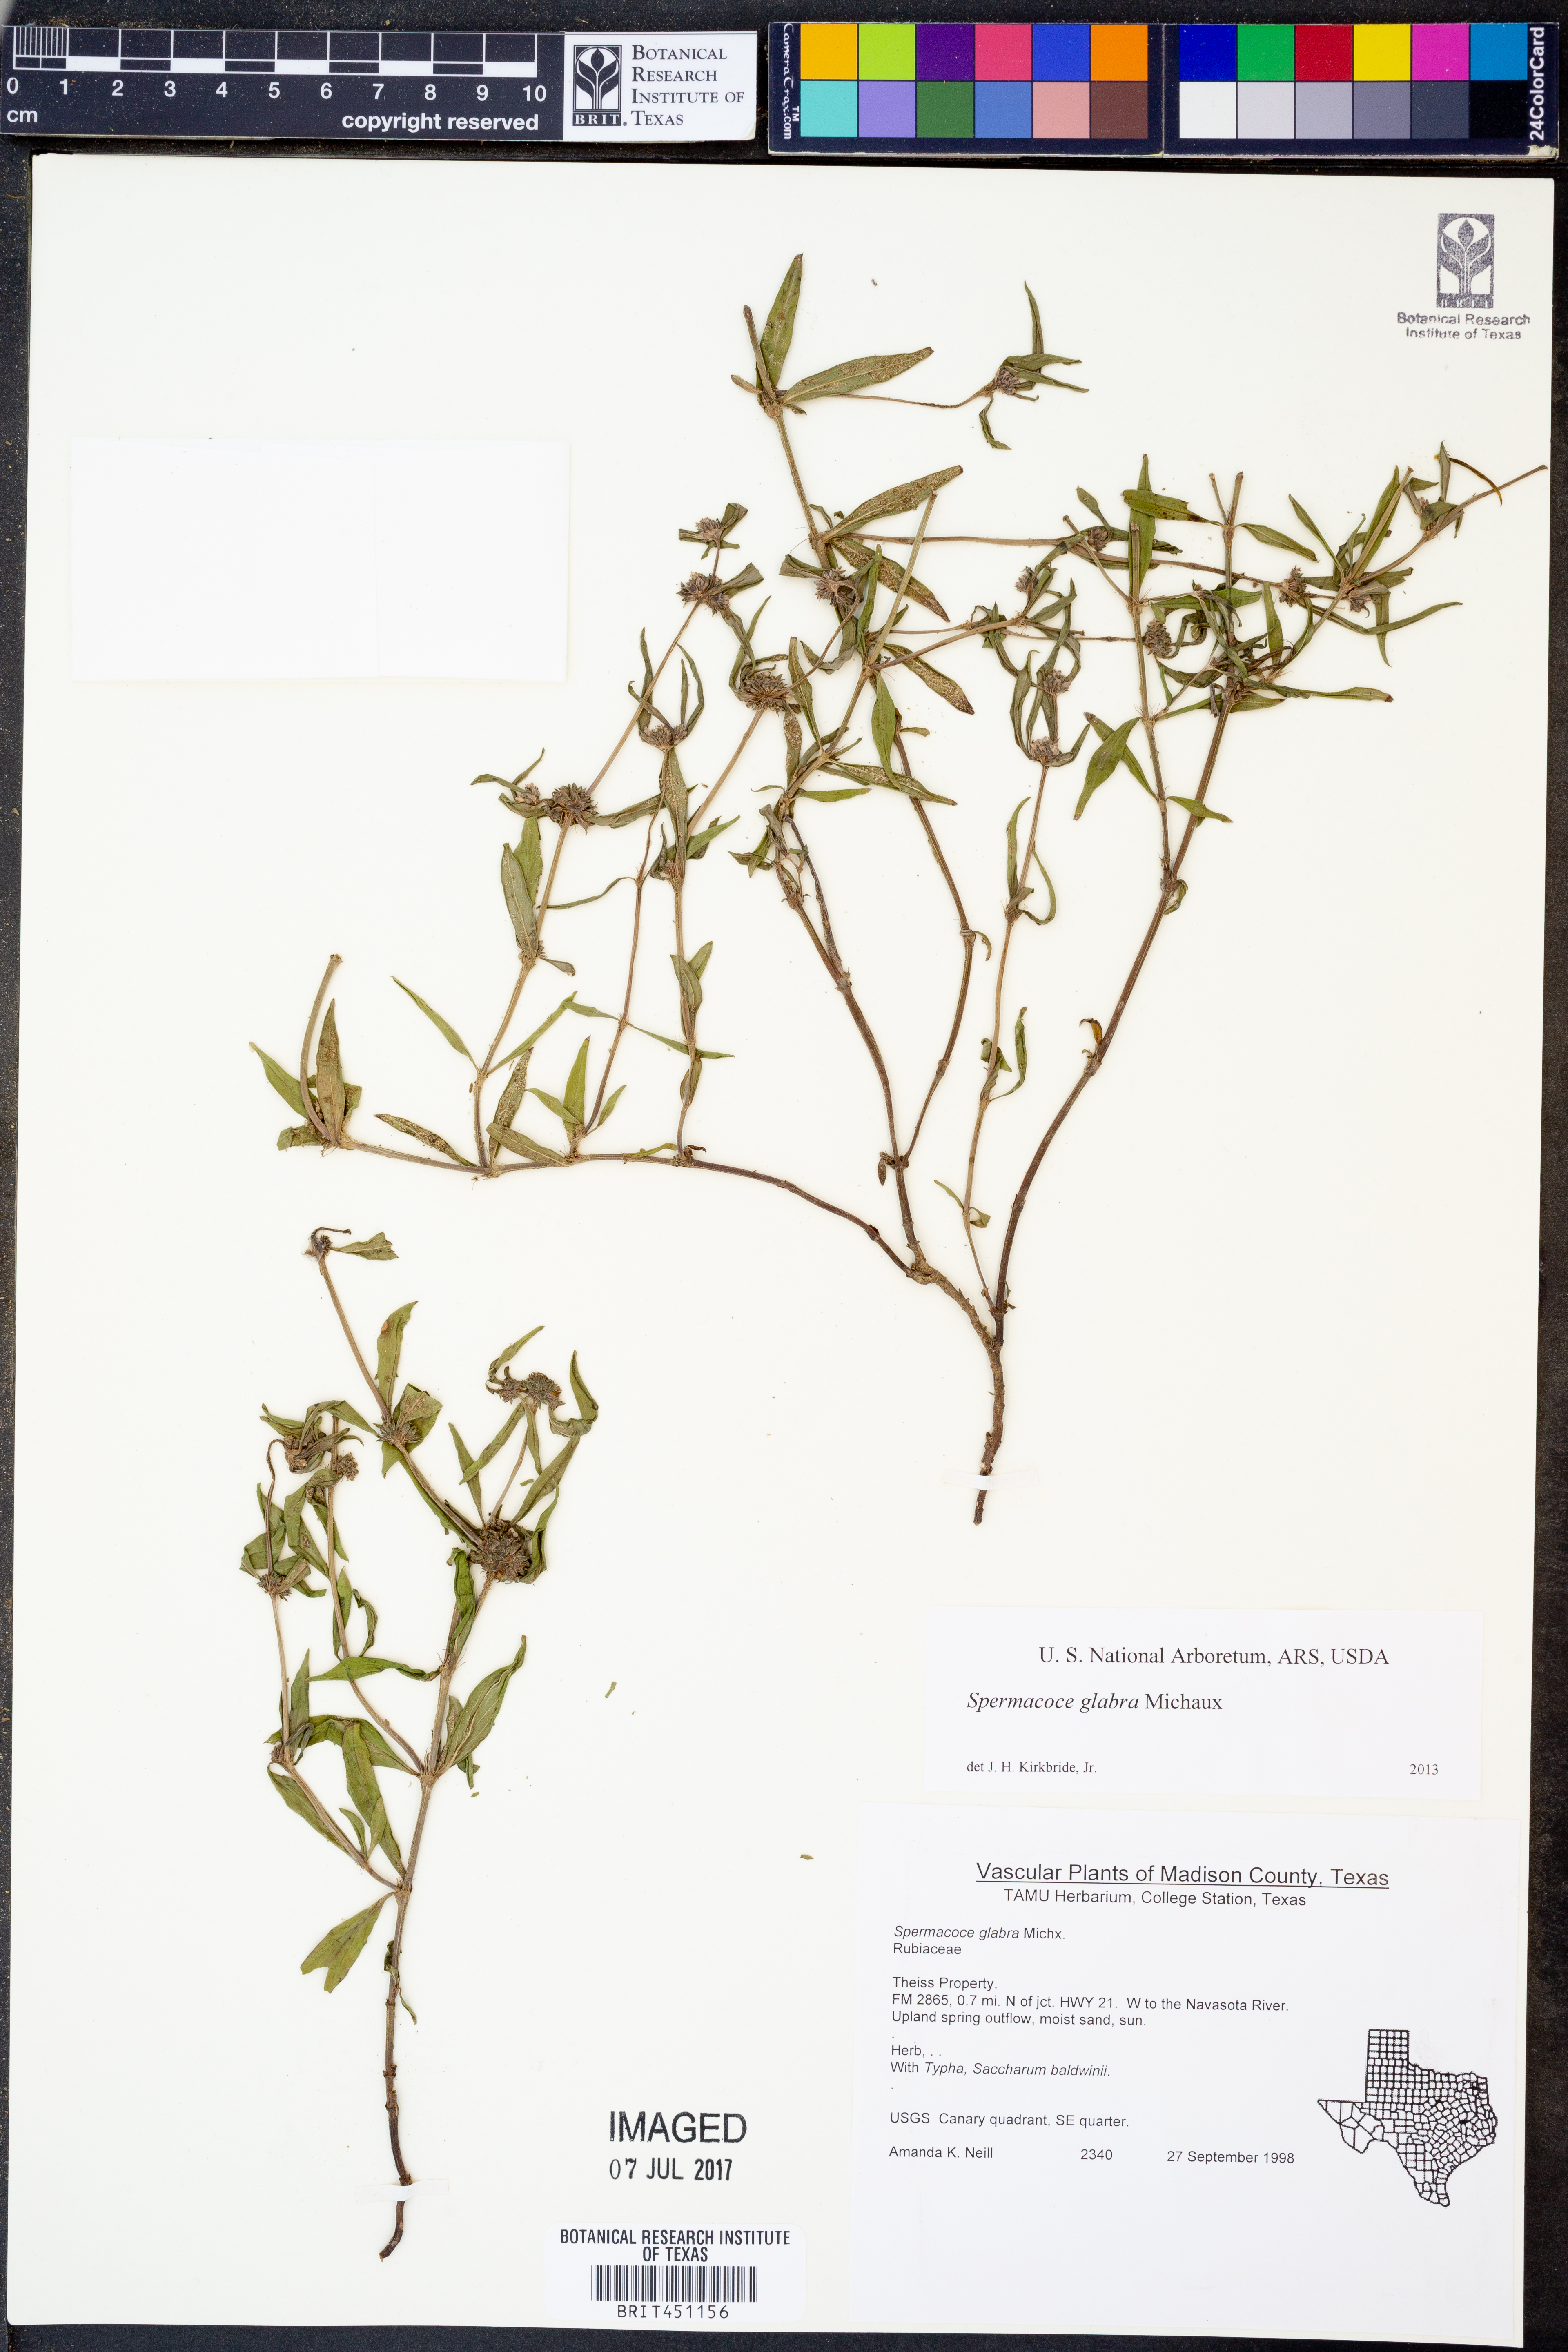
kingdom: Plantae
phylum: Tracheophyta
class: Magnoliopsida
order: Gentianales
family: Rubiaceae
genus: Spermacoce
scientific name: Spermacoce glabra
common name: Smooth buttonweed
